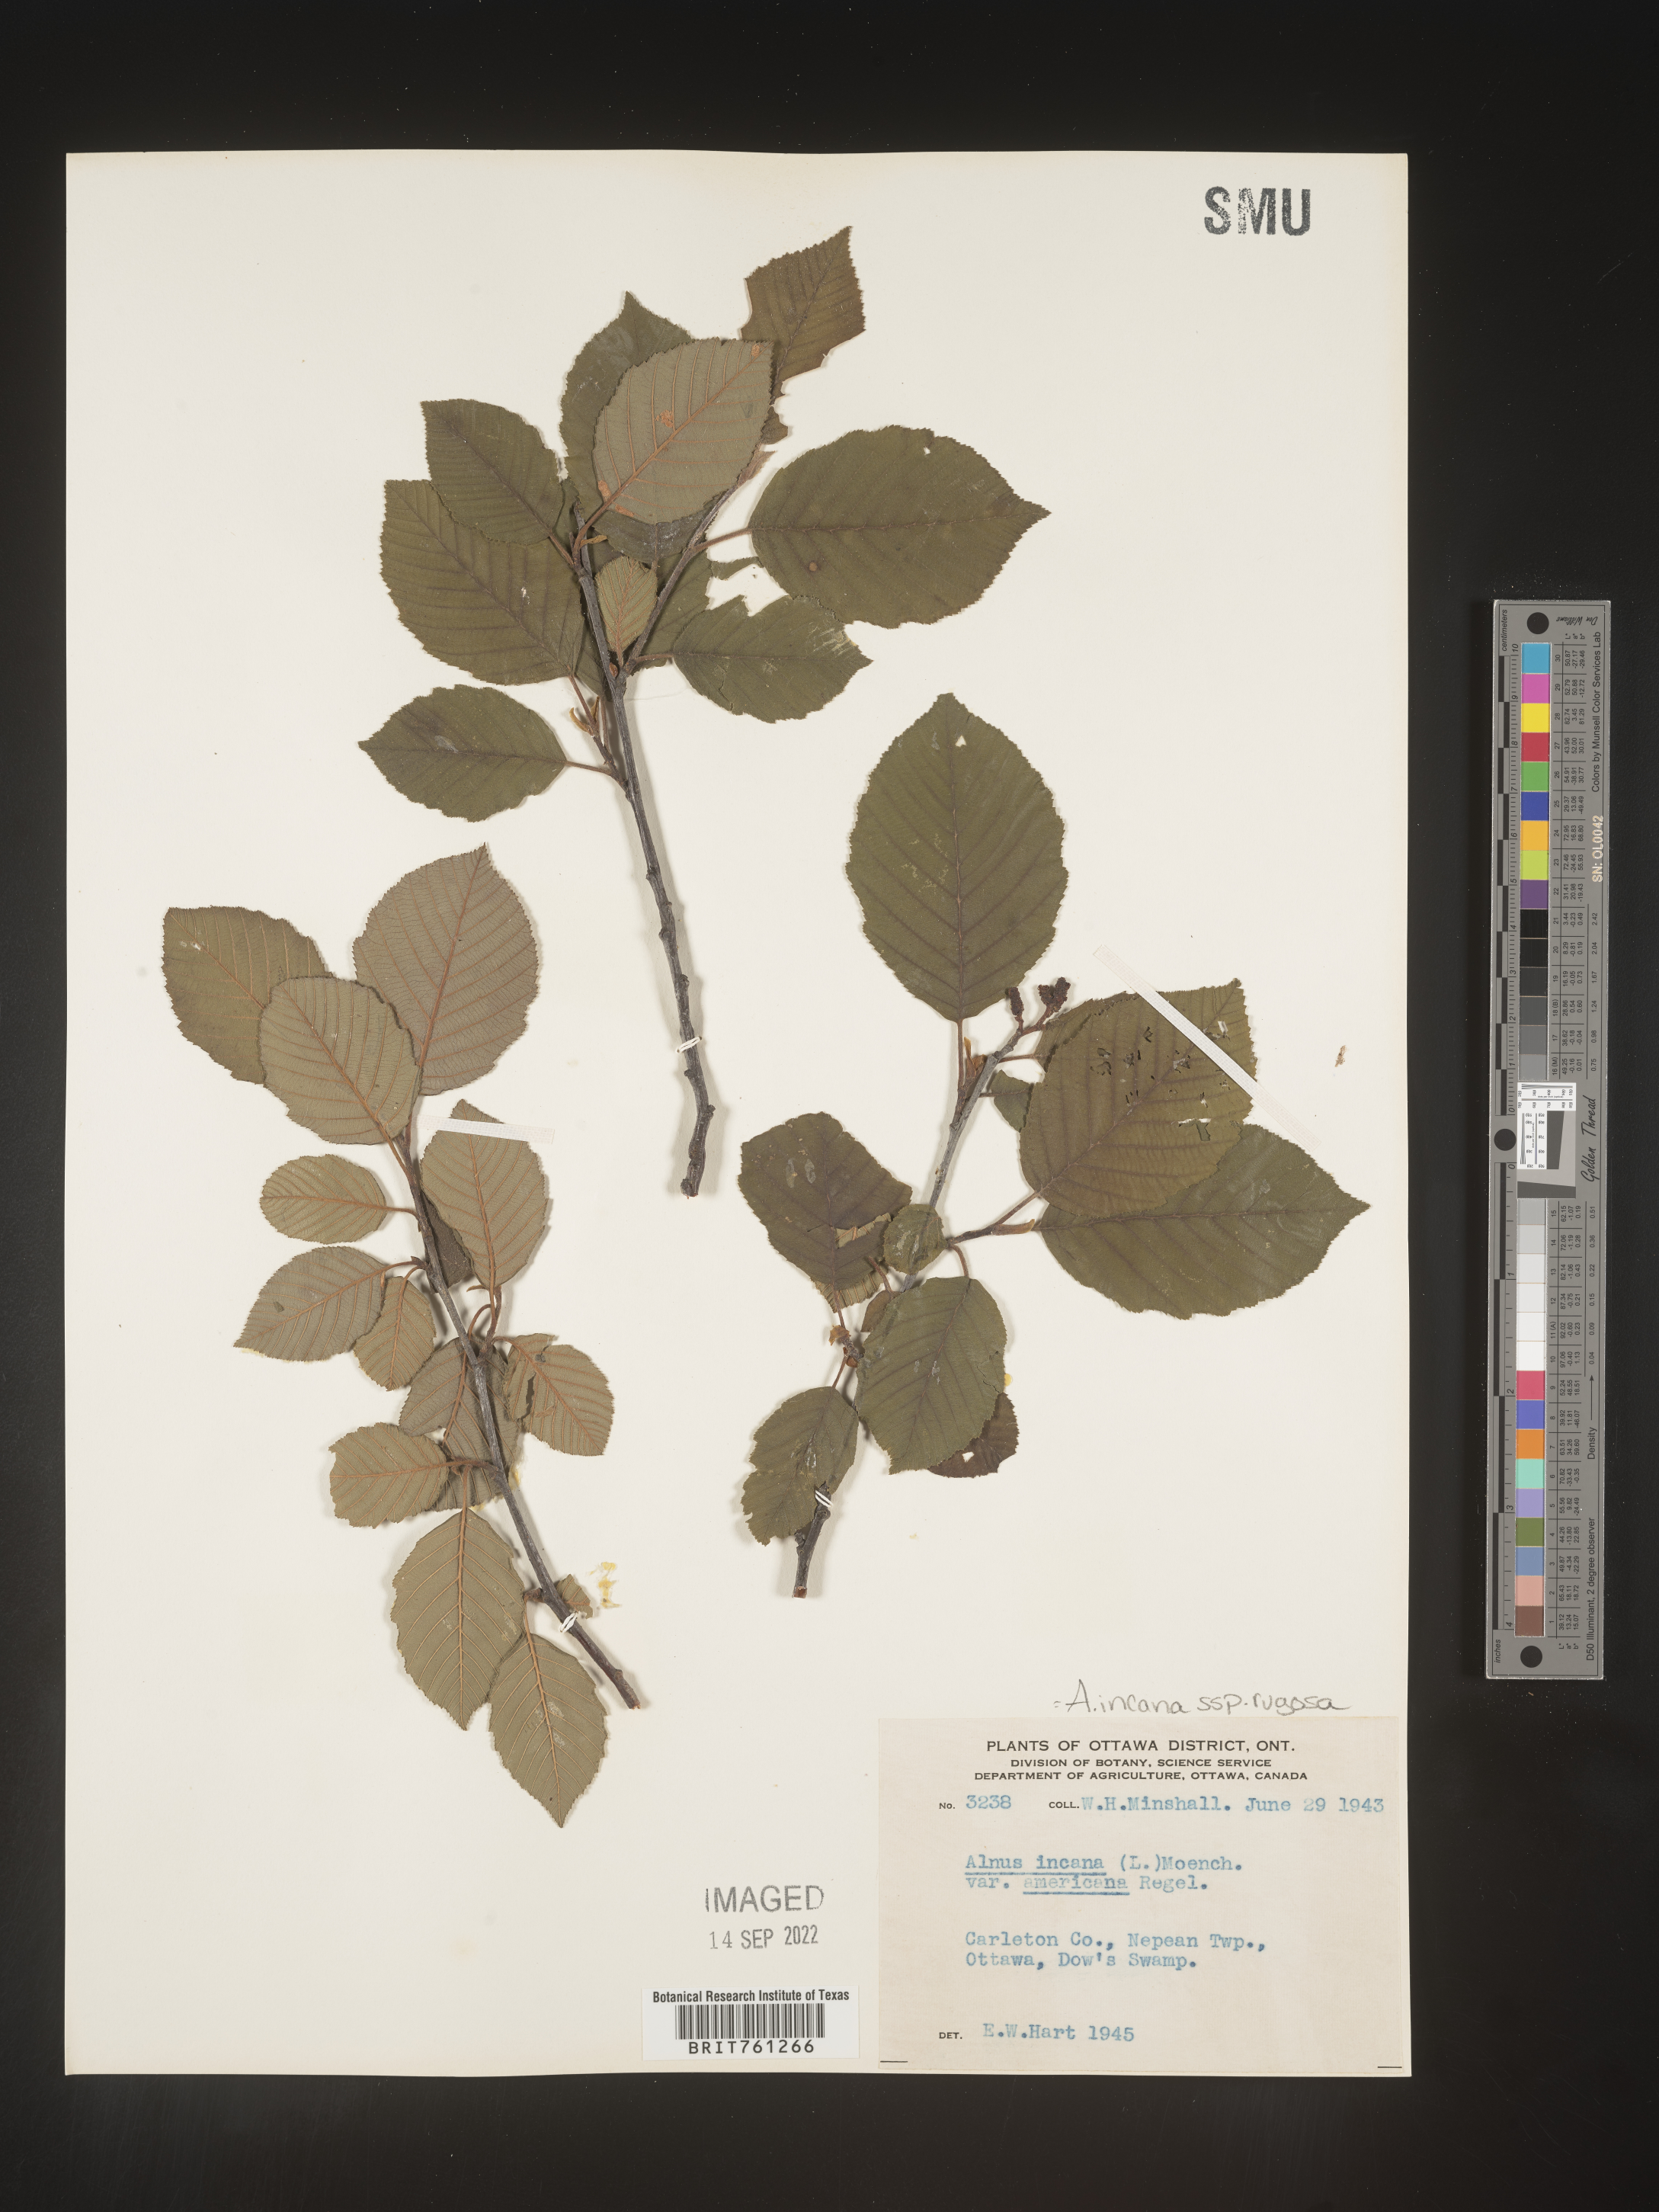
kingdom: Plantae
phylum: Tracheophyta
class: Magnoliopsida
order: Fagales
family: Betulaceae
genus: Alnus
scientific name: Alnus incana
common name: Grey alder
